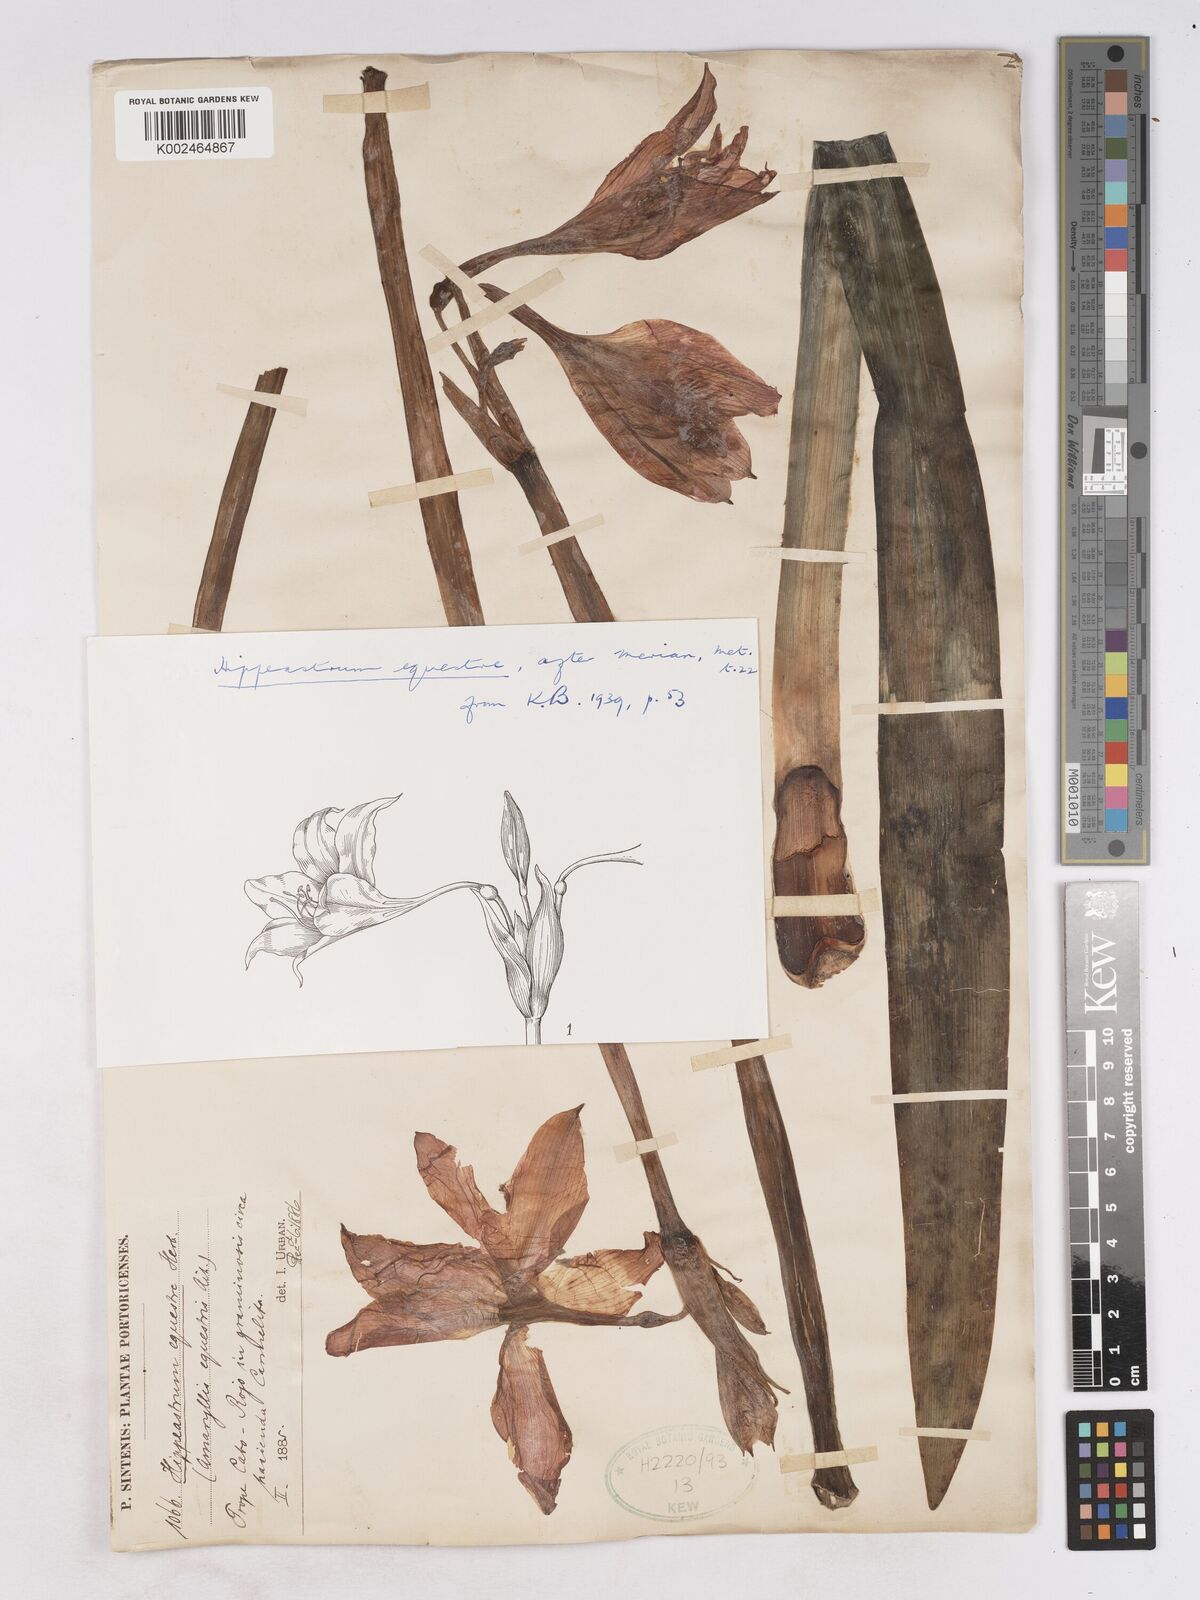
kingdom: Plantae
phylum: Tracheophyta
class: Liliopsida
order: Asparagales
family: Amaryllidaceae
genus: Hippeastrum
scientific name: Hippeastrum puniceum
